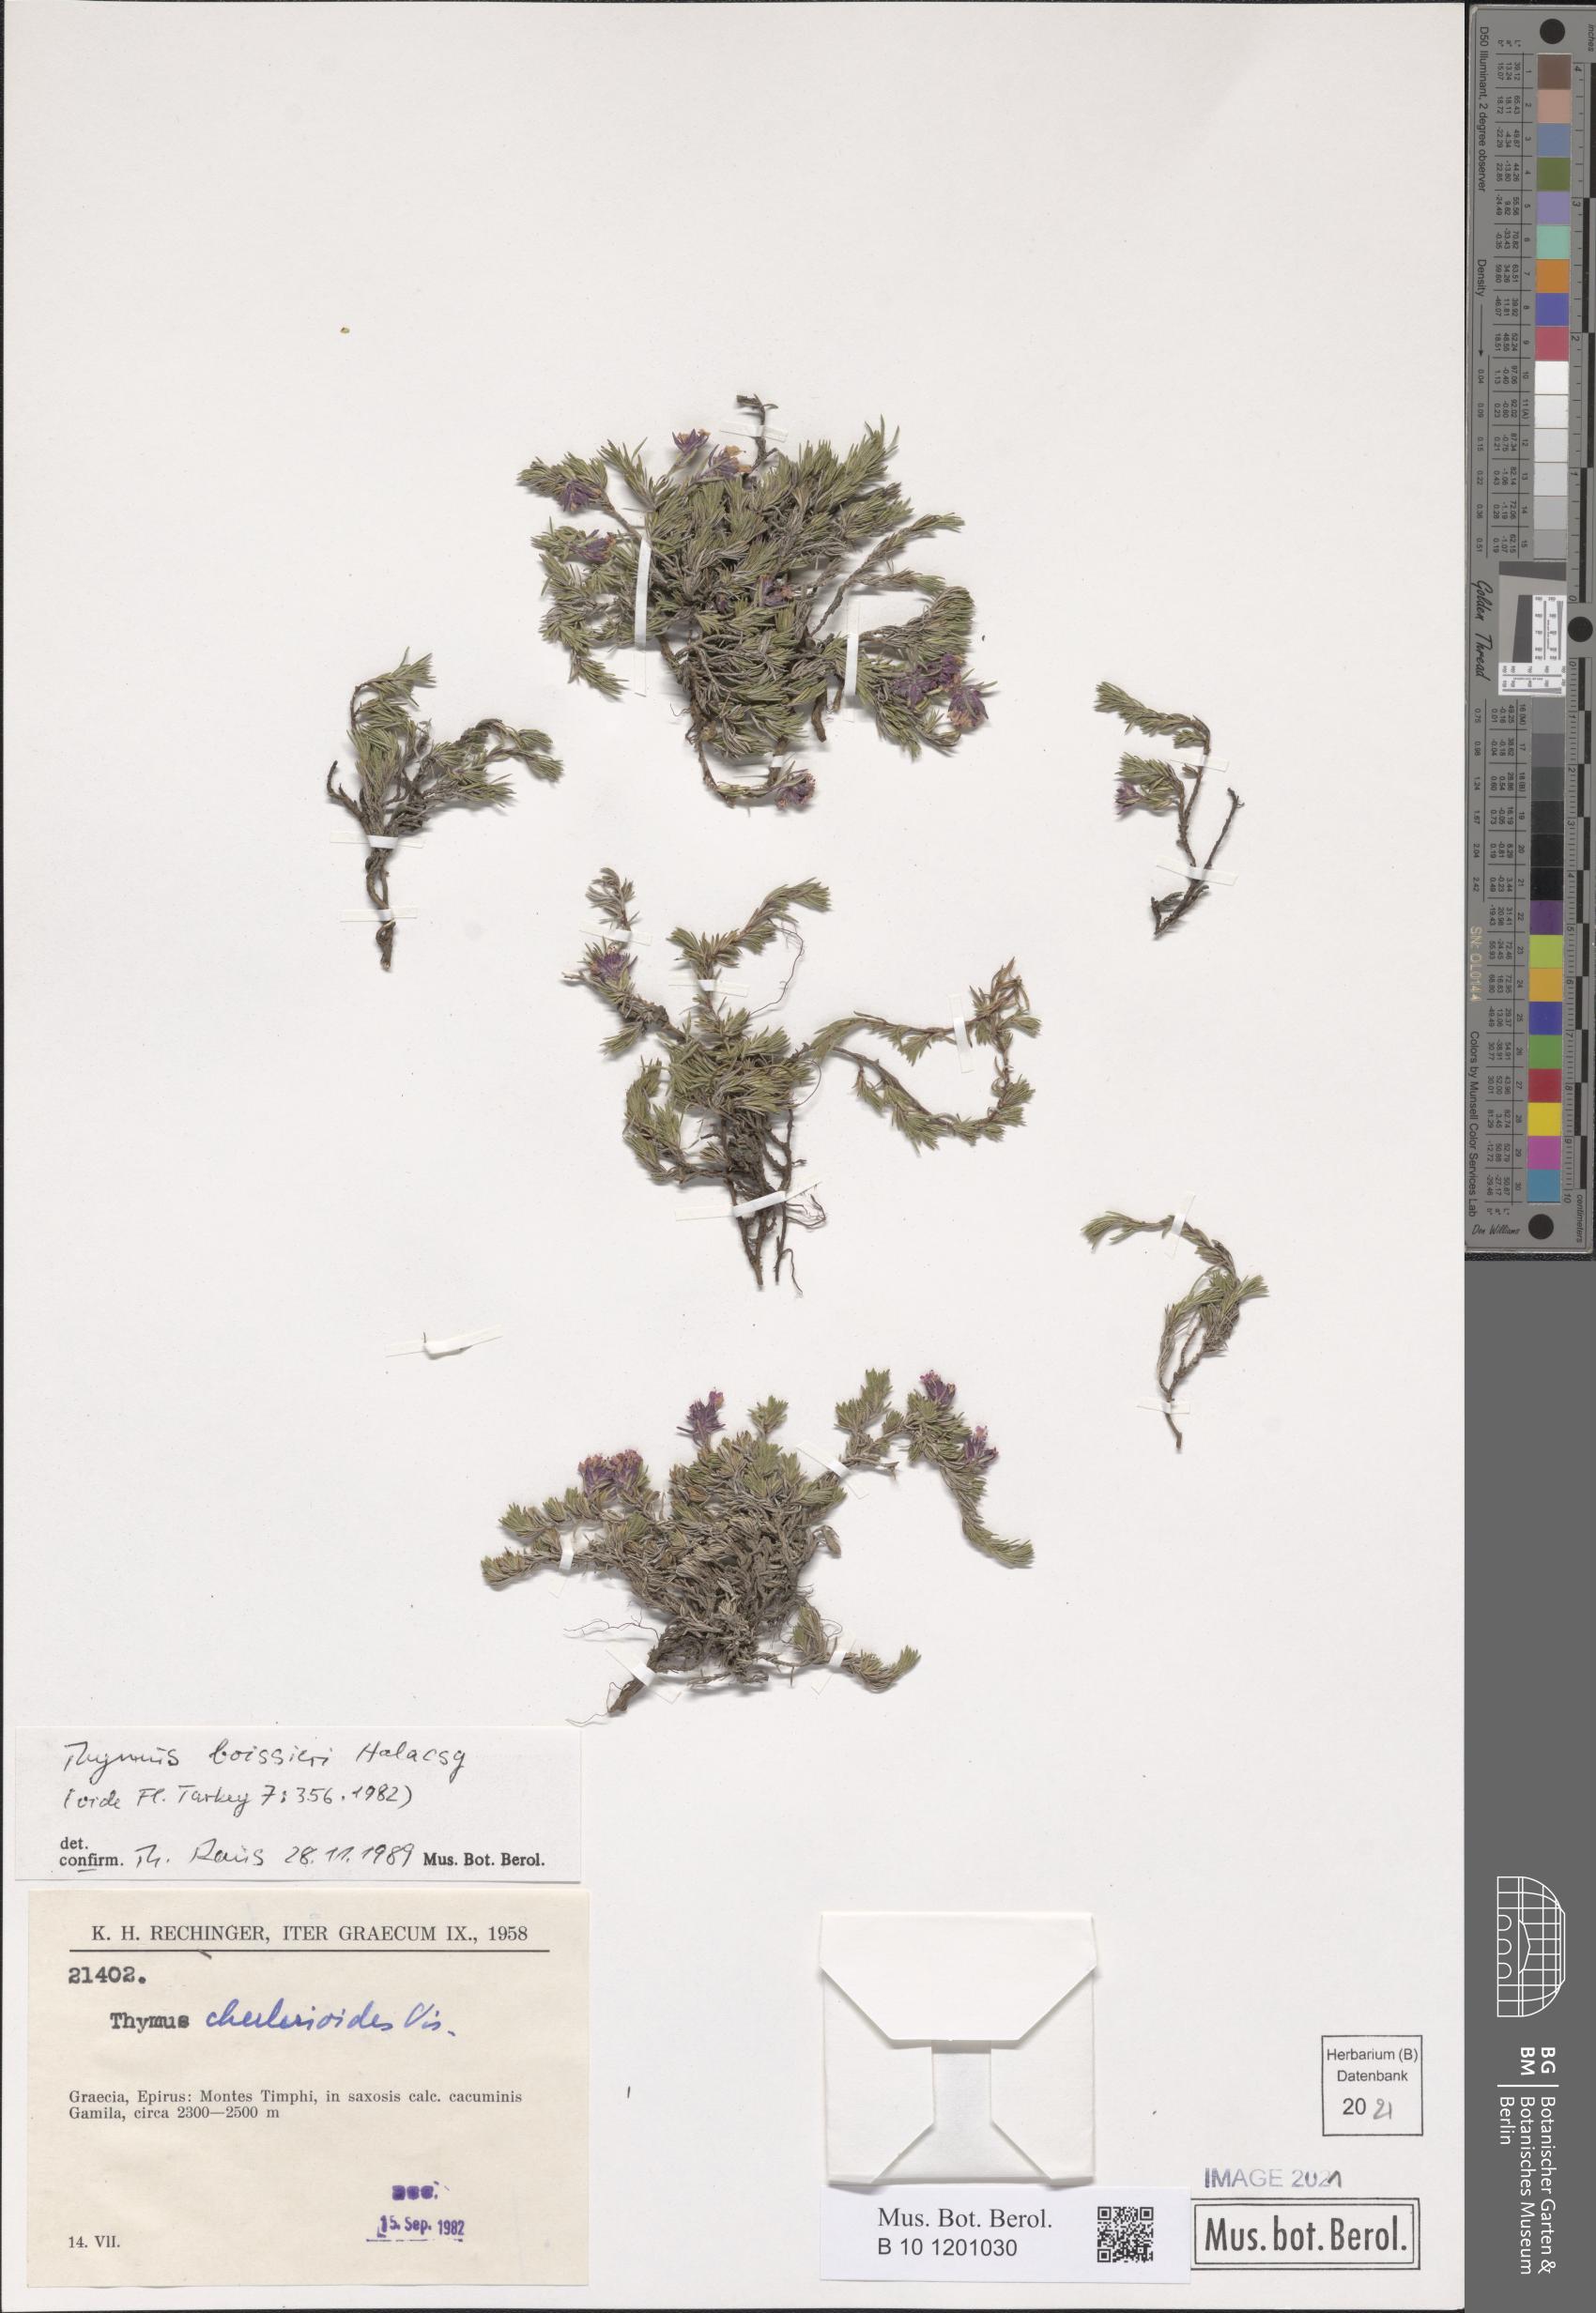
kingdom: Plantae
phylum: Tracheophyta
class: Magnoliopsida
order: Lamiales
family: Lamiaceae
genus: Thymus
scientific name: Thymus boissieri
